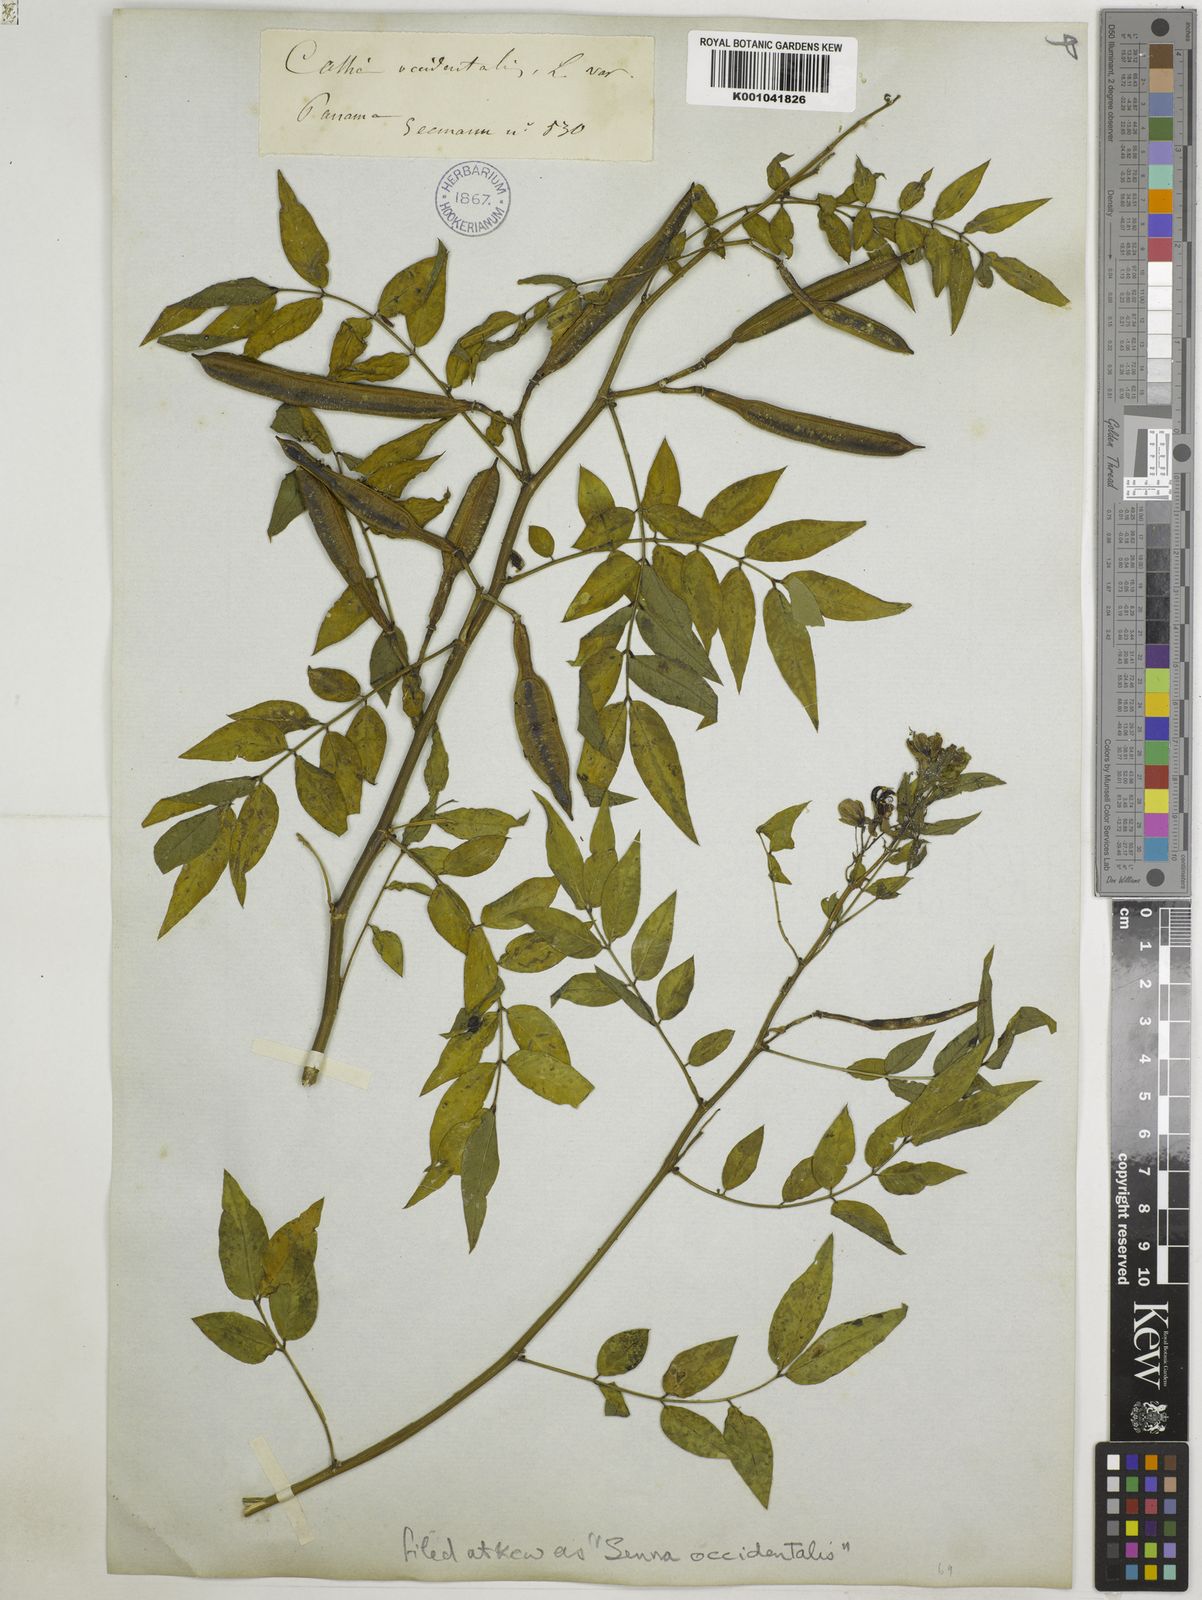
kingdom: Plantae
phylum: Tracheophyta
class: Magnoliopsida
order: Fabales
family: Fabaceae
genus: Senna
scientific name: Senna occidentalis
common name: Septicweed
